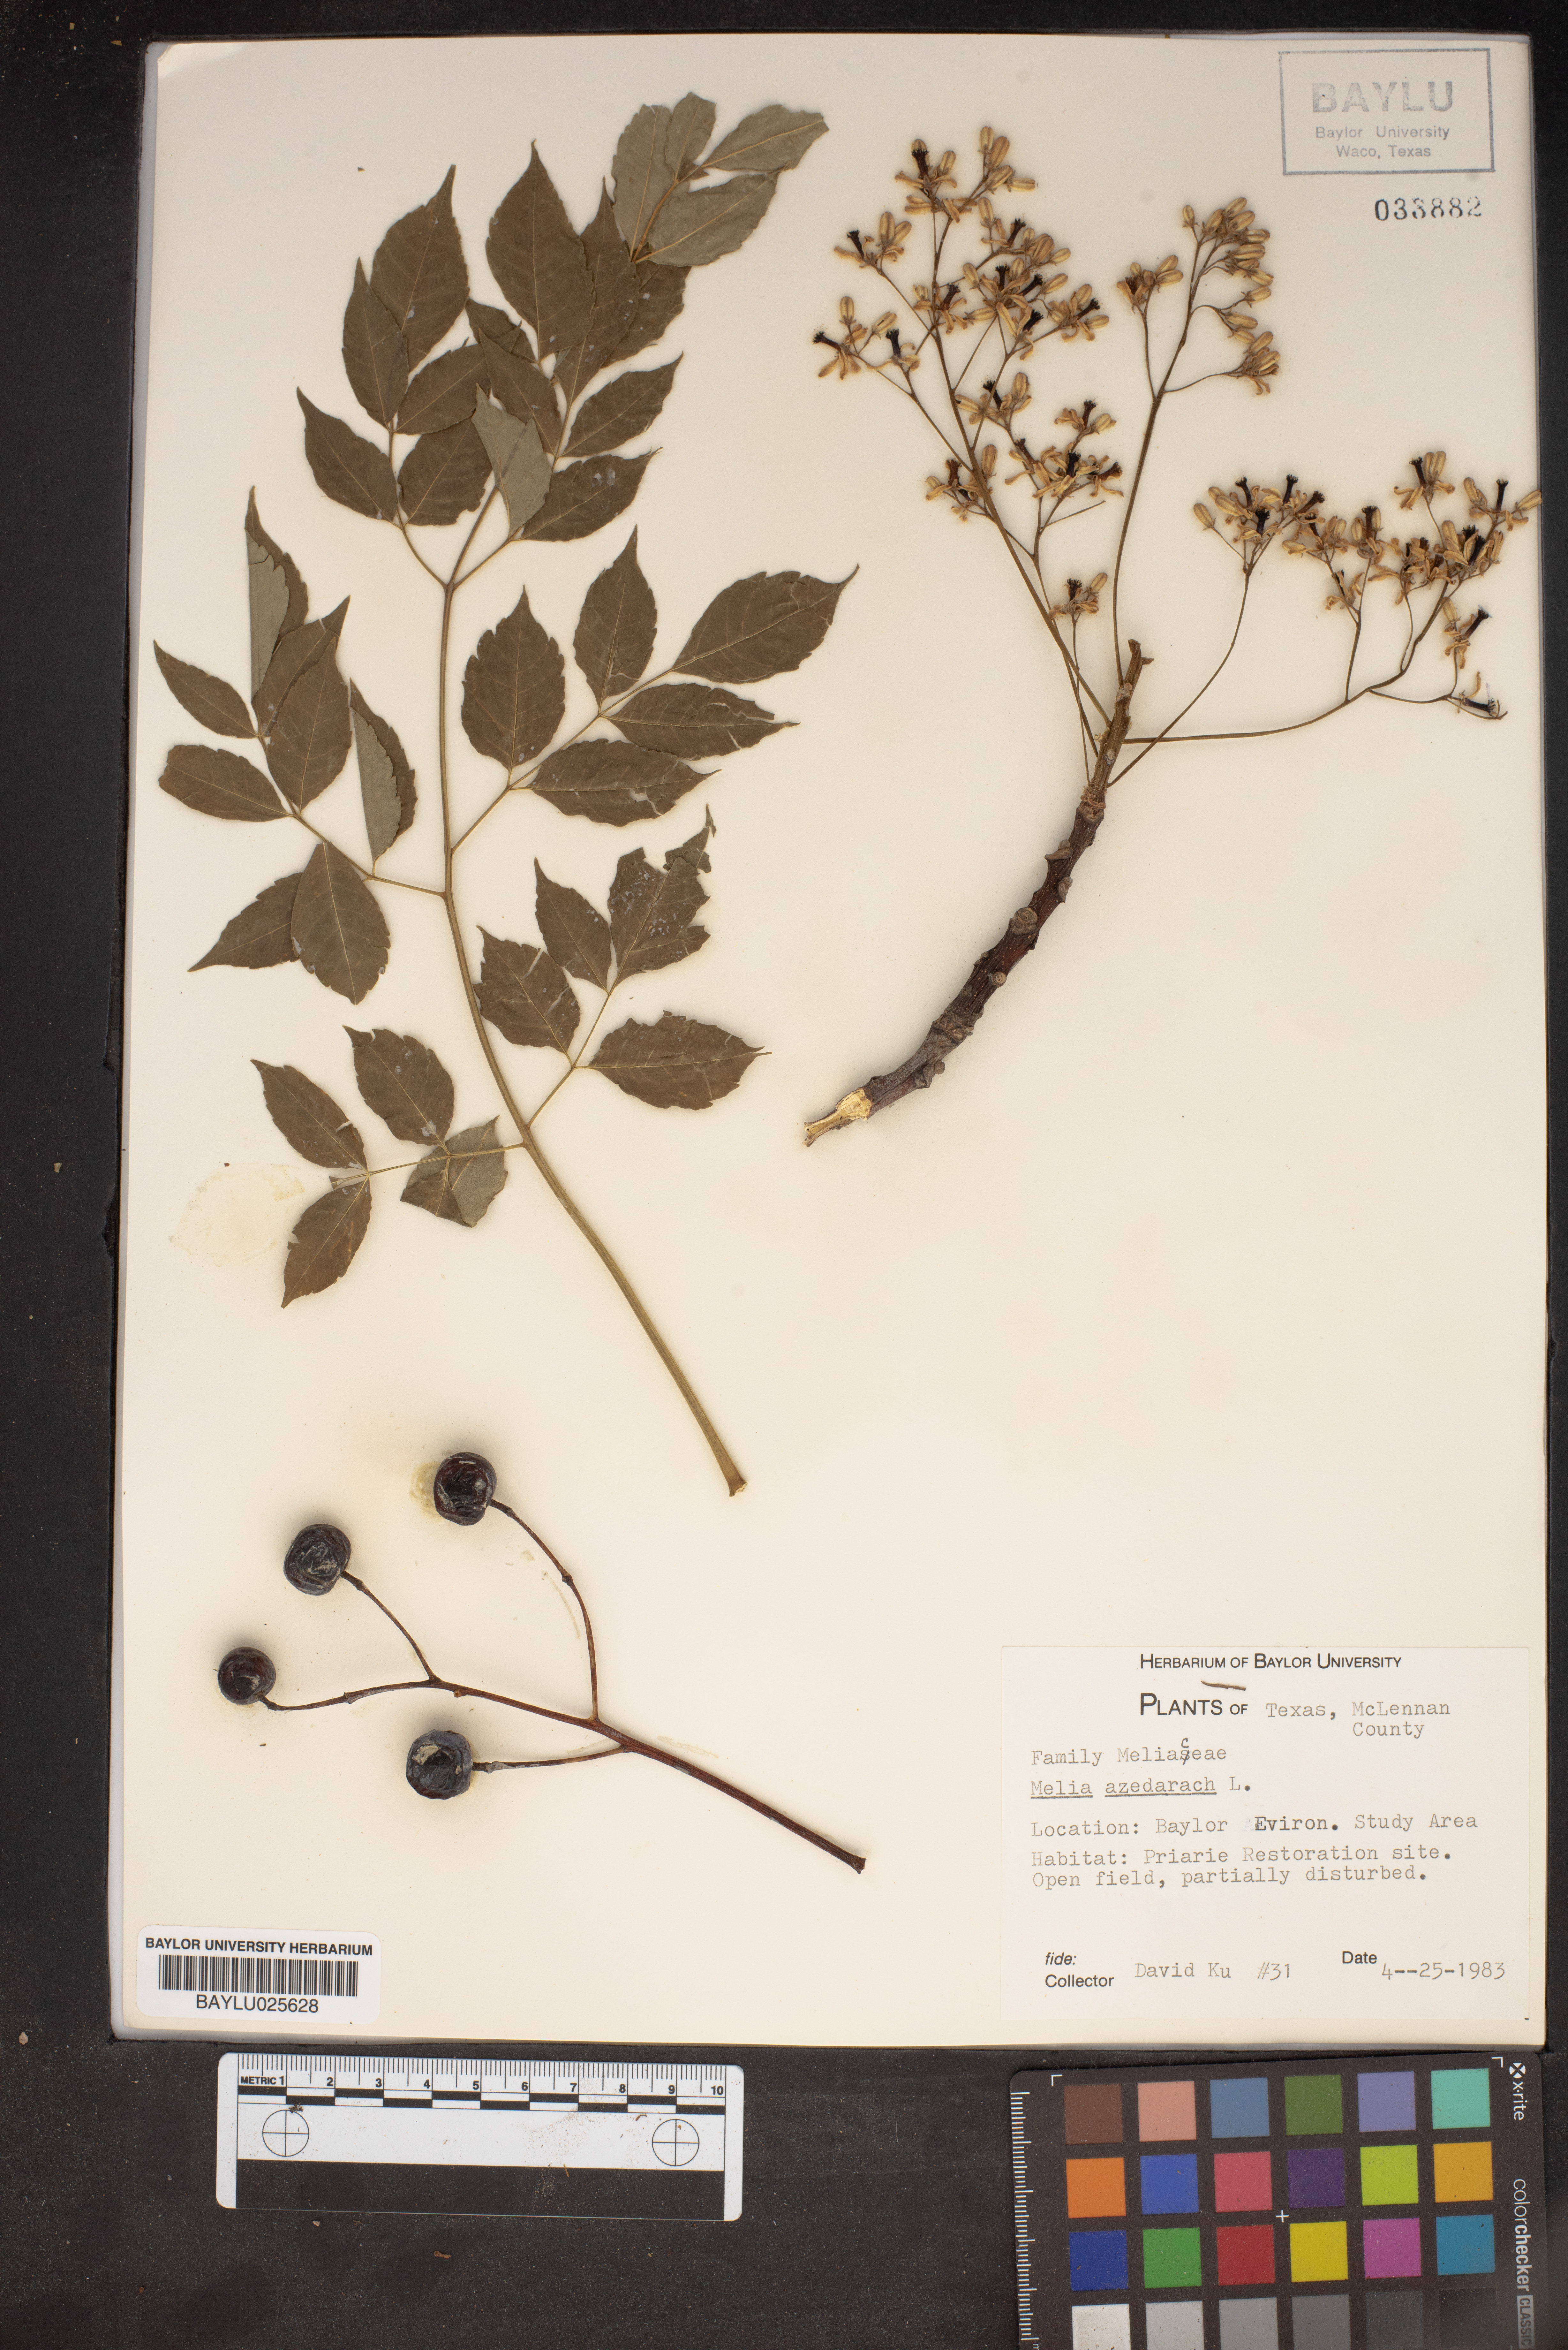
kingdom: Plantae
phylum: Tracheophyta
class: Magnoliopsida
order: Sapindales
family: Meliaceae
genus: Melia
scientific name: Melia azedarach
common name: Chinaberrytree
